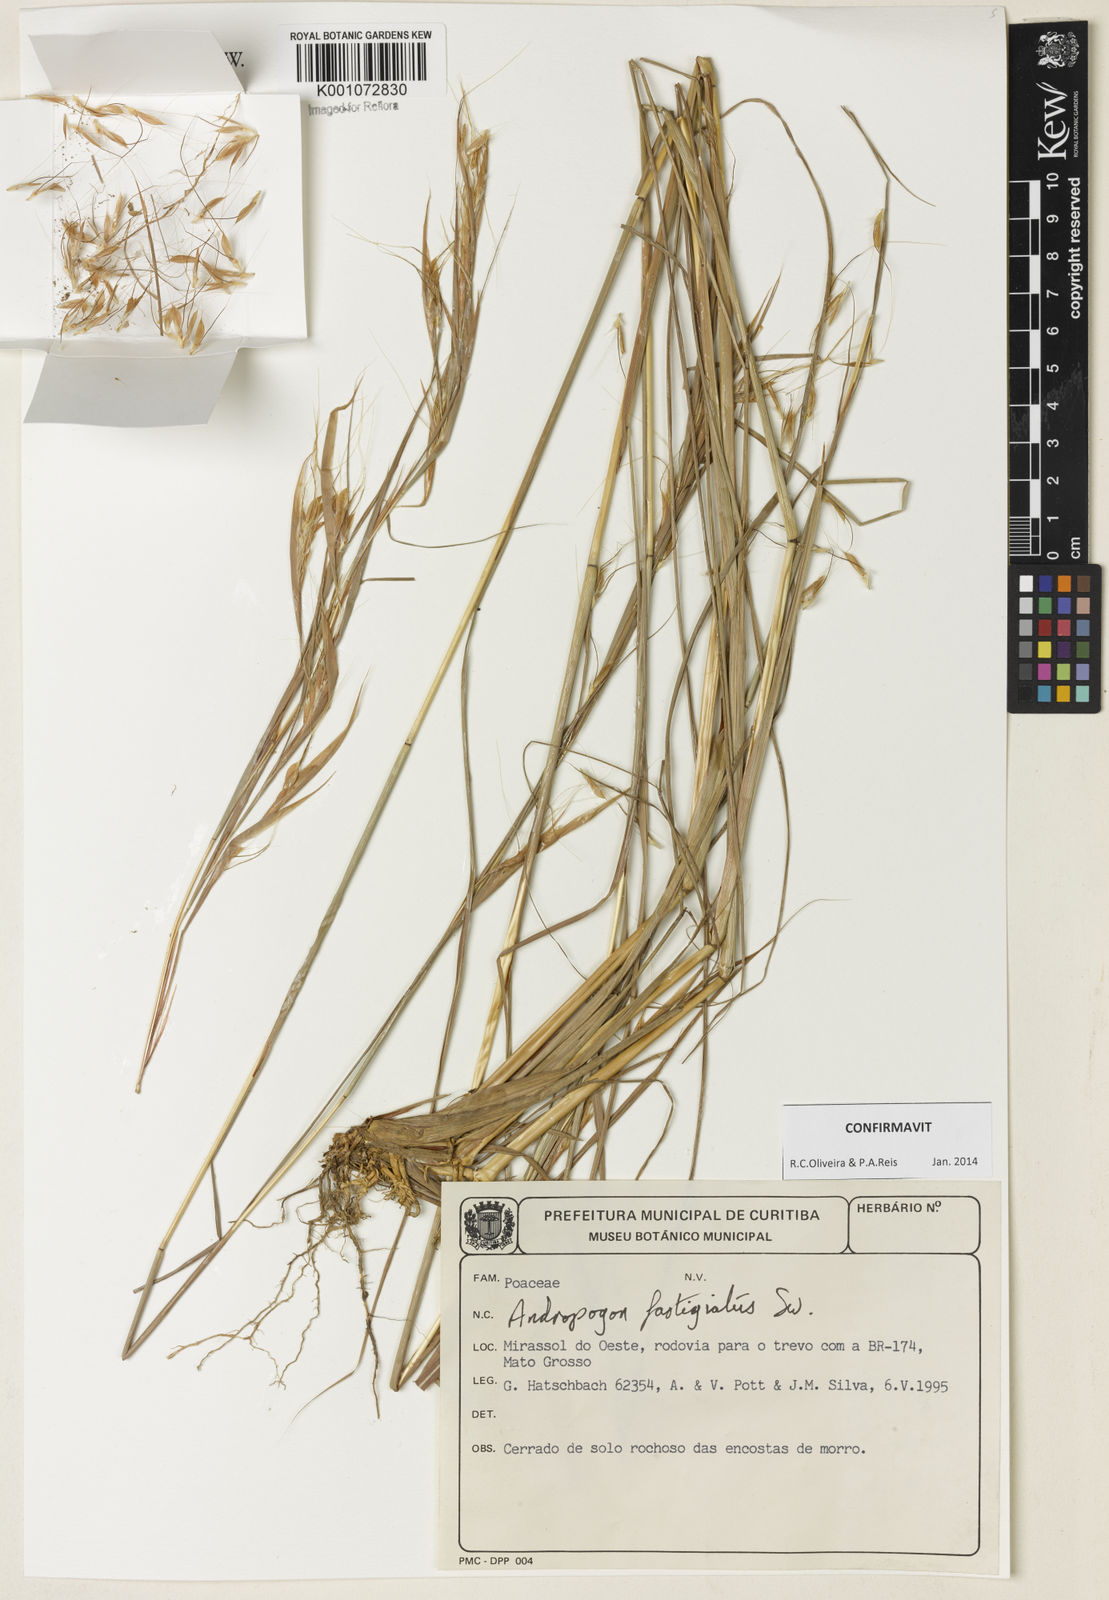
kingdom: Plantae
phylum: Tracheophyta
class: Liliopsida
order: Poales
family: Poaceae
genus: Diectomis
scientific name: Diectomis fastigiata
